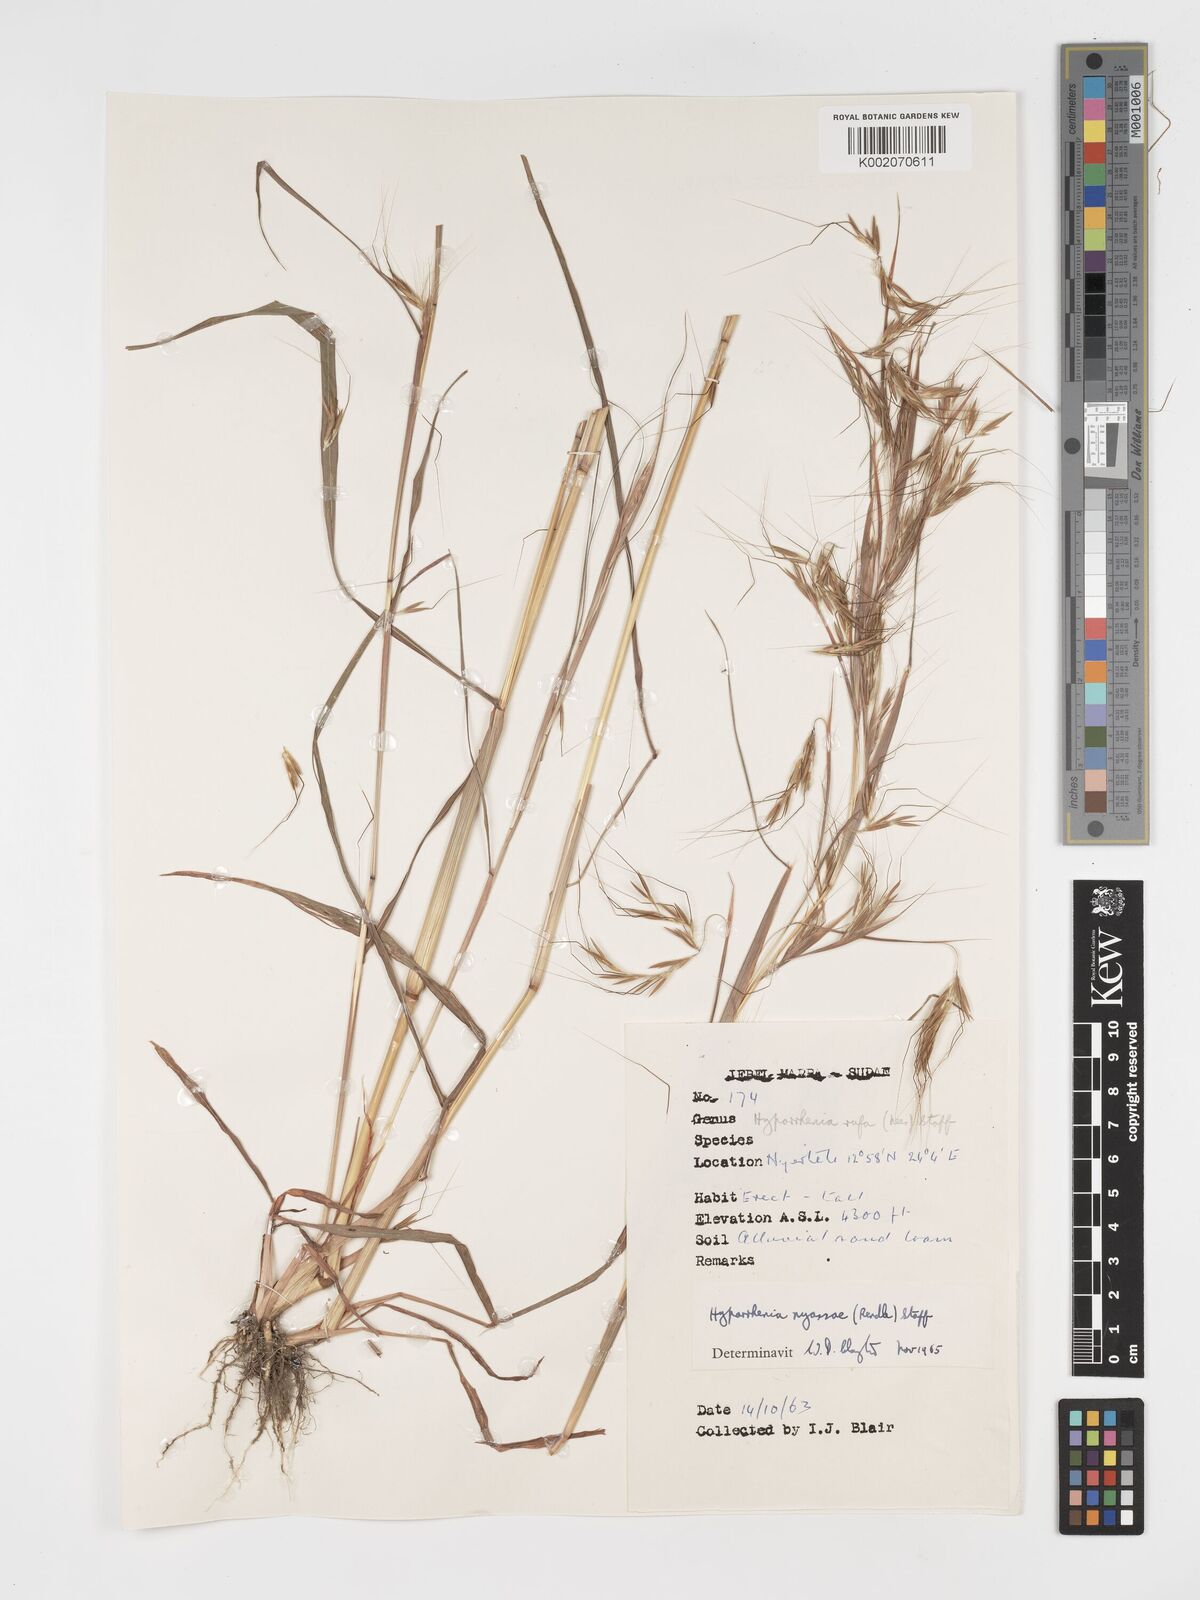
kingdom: Plantae
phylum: Tracheophyta
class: Liliopsida
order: Poales
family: Poaceae
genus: Hyparrhenia
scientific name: Hyparrhenia nyassae
